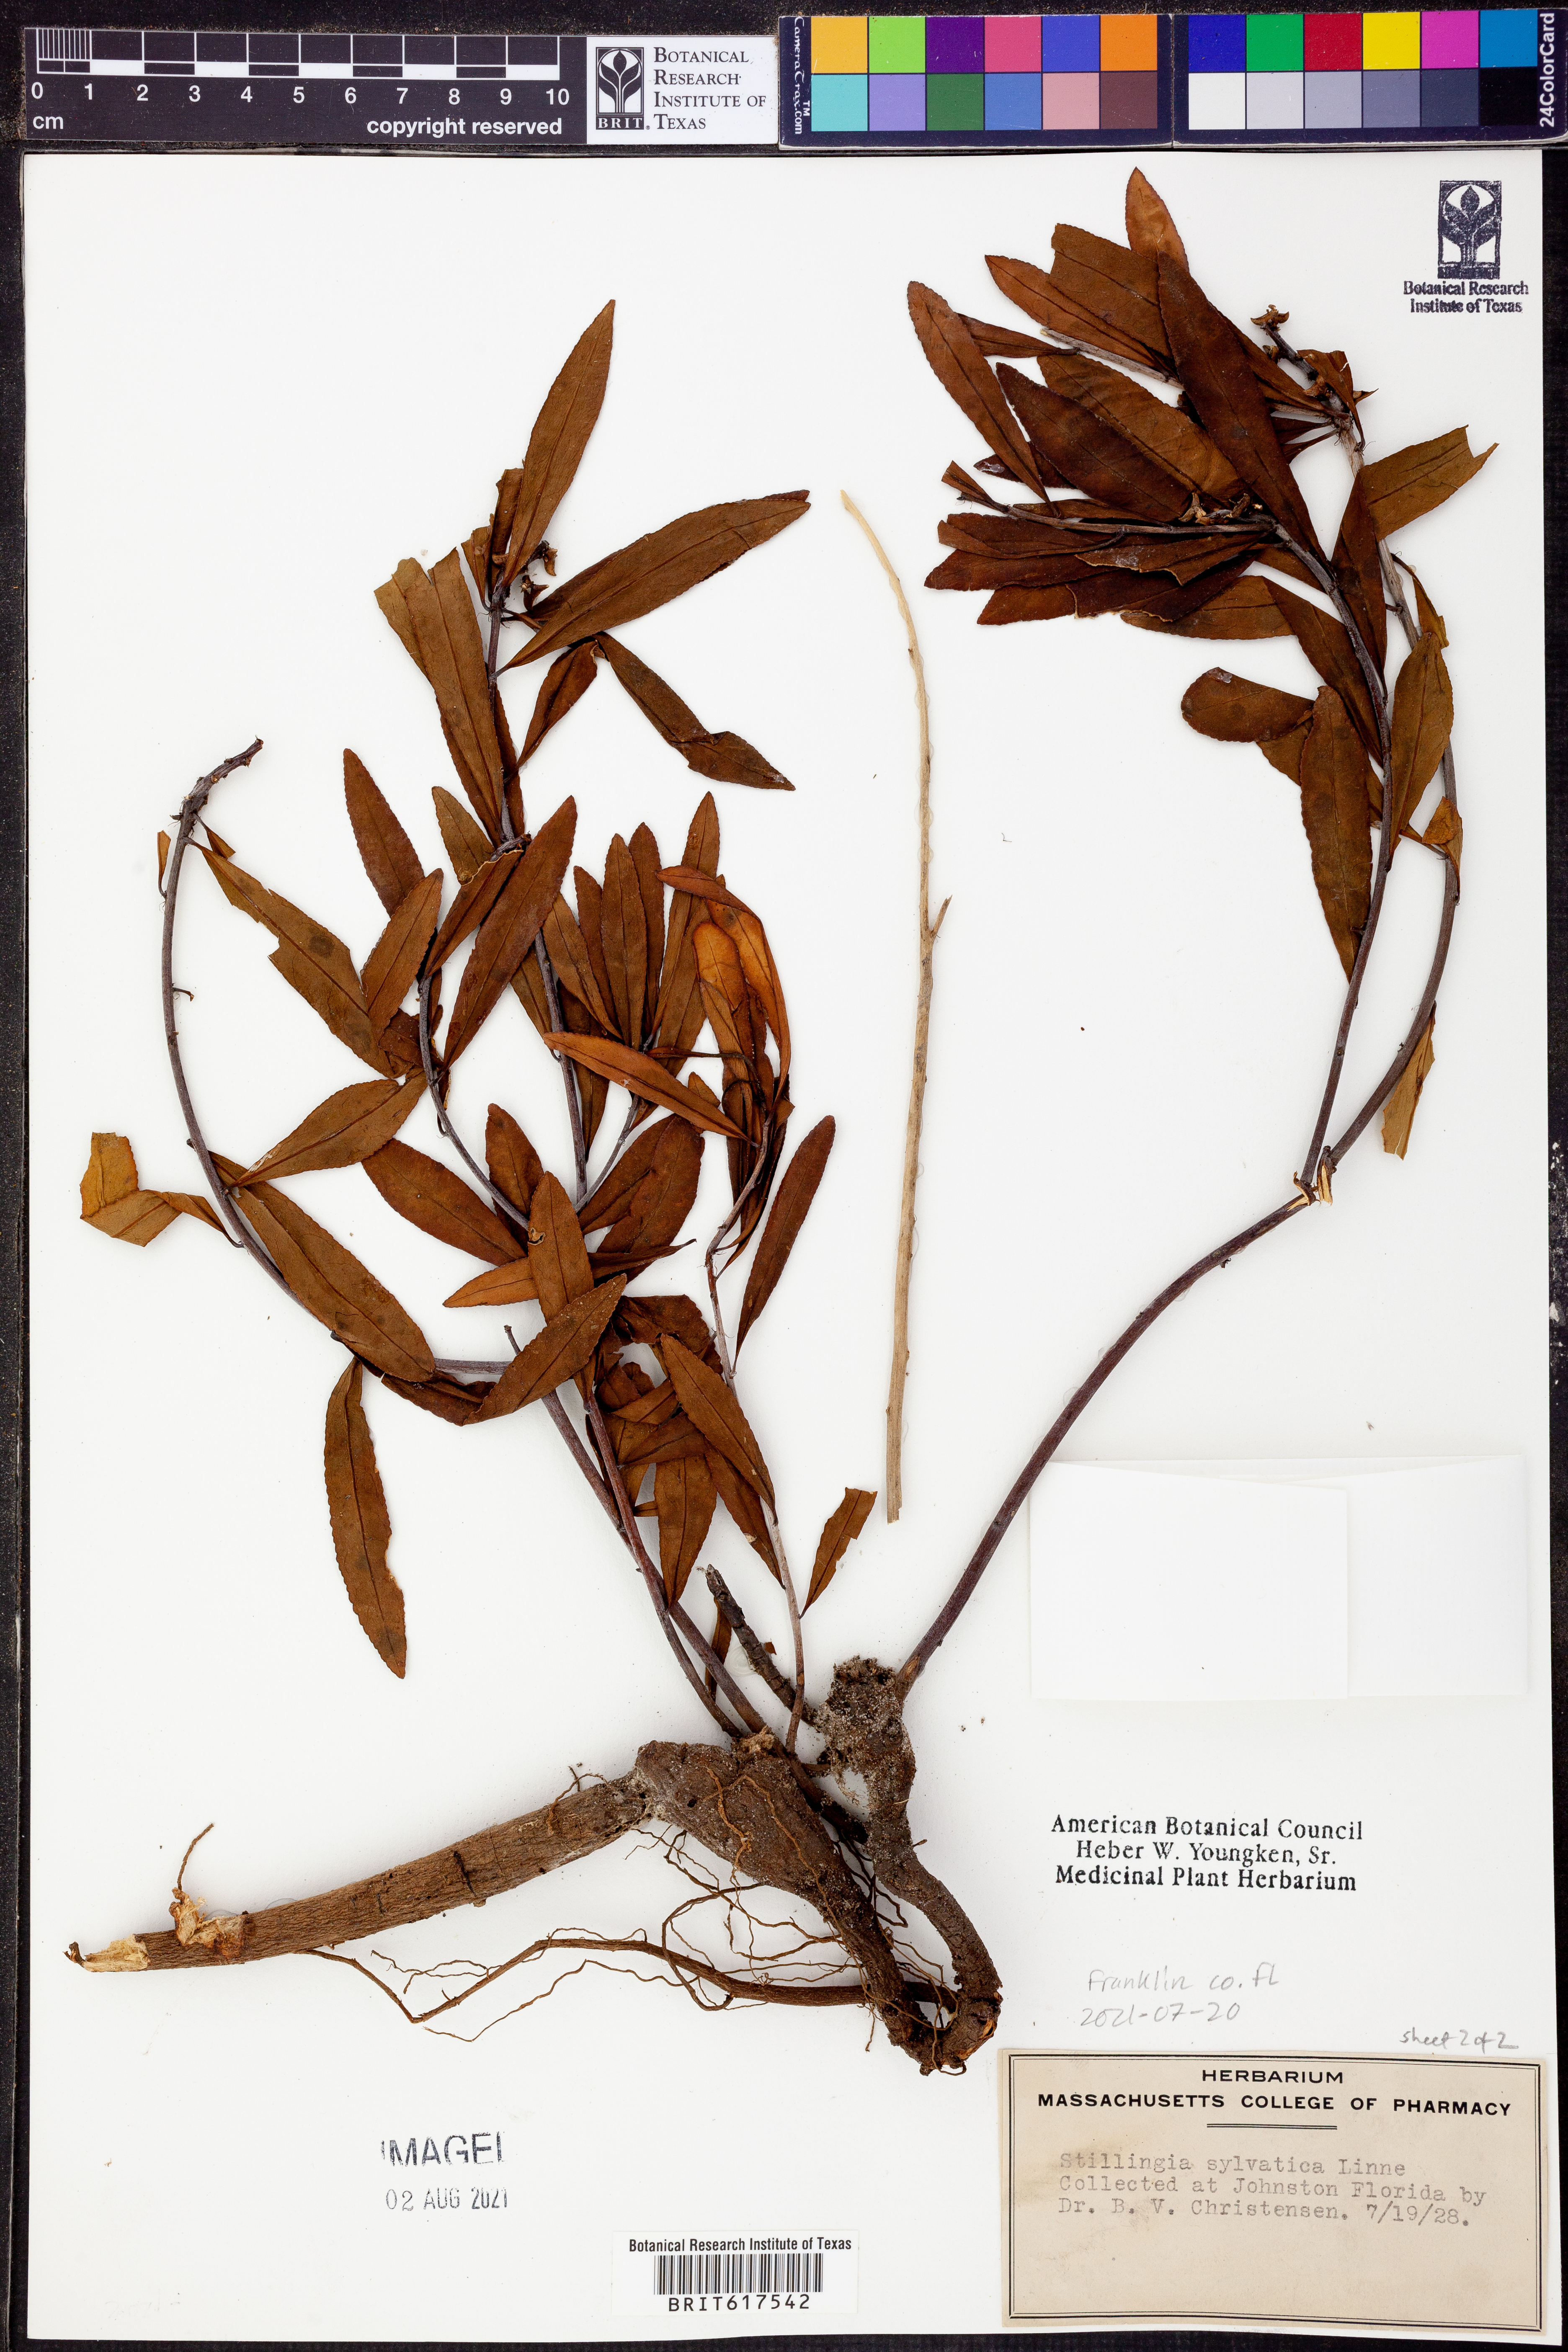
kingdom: Plantae
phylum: Tracheophyta
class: Magnoliopsida
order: Malpighiales
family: Euphorbiaceae
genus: Stillingia
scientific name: Stillingia sylvatica
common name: Queen's-delight
